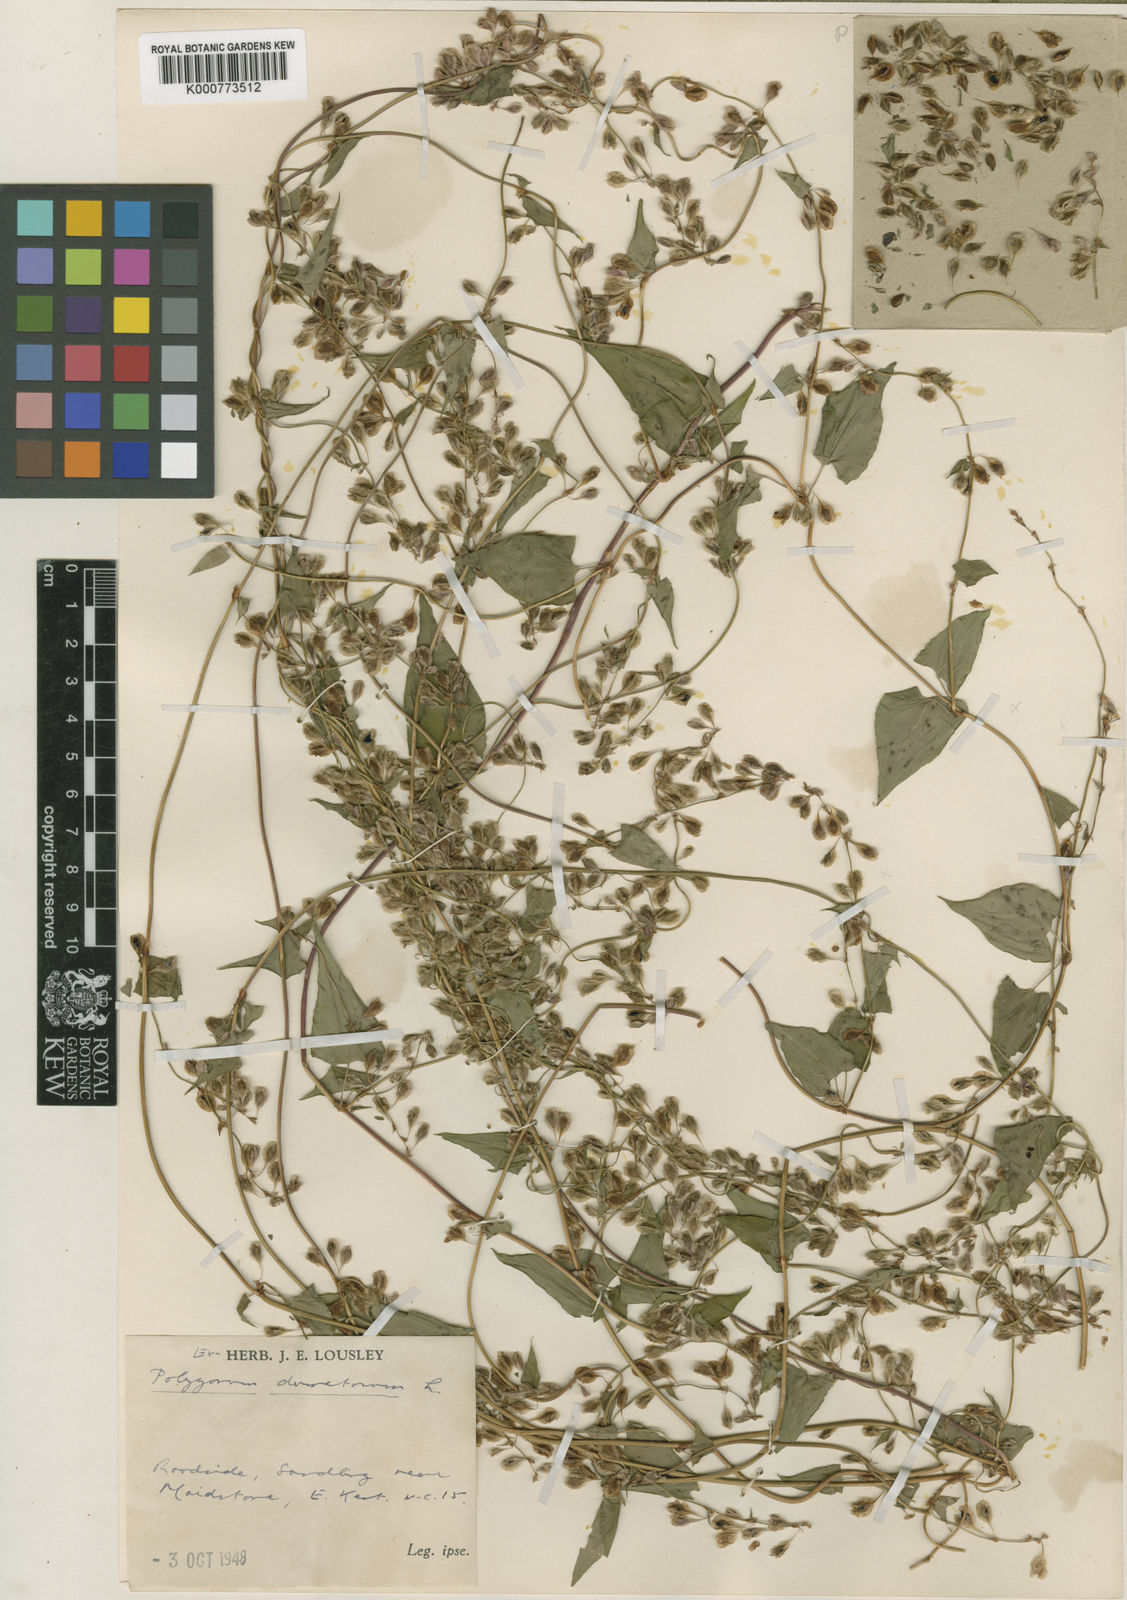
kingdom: Plantae
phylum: Tracheophyta
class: Magnoliopsida
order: Caryophyllales
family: Polygonaceae
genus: Fallopia
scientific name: Fallopia dumetorum
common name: Copse-bindweed
